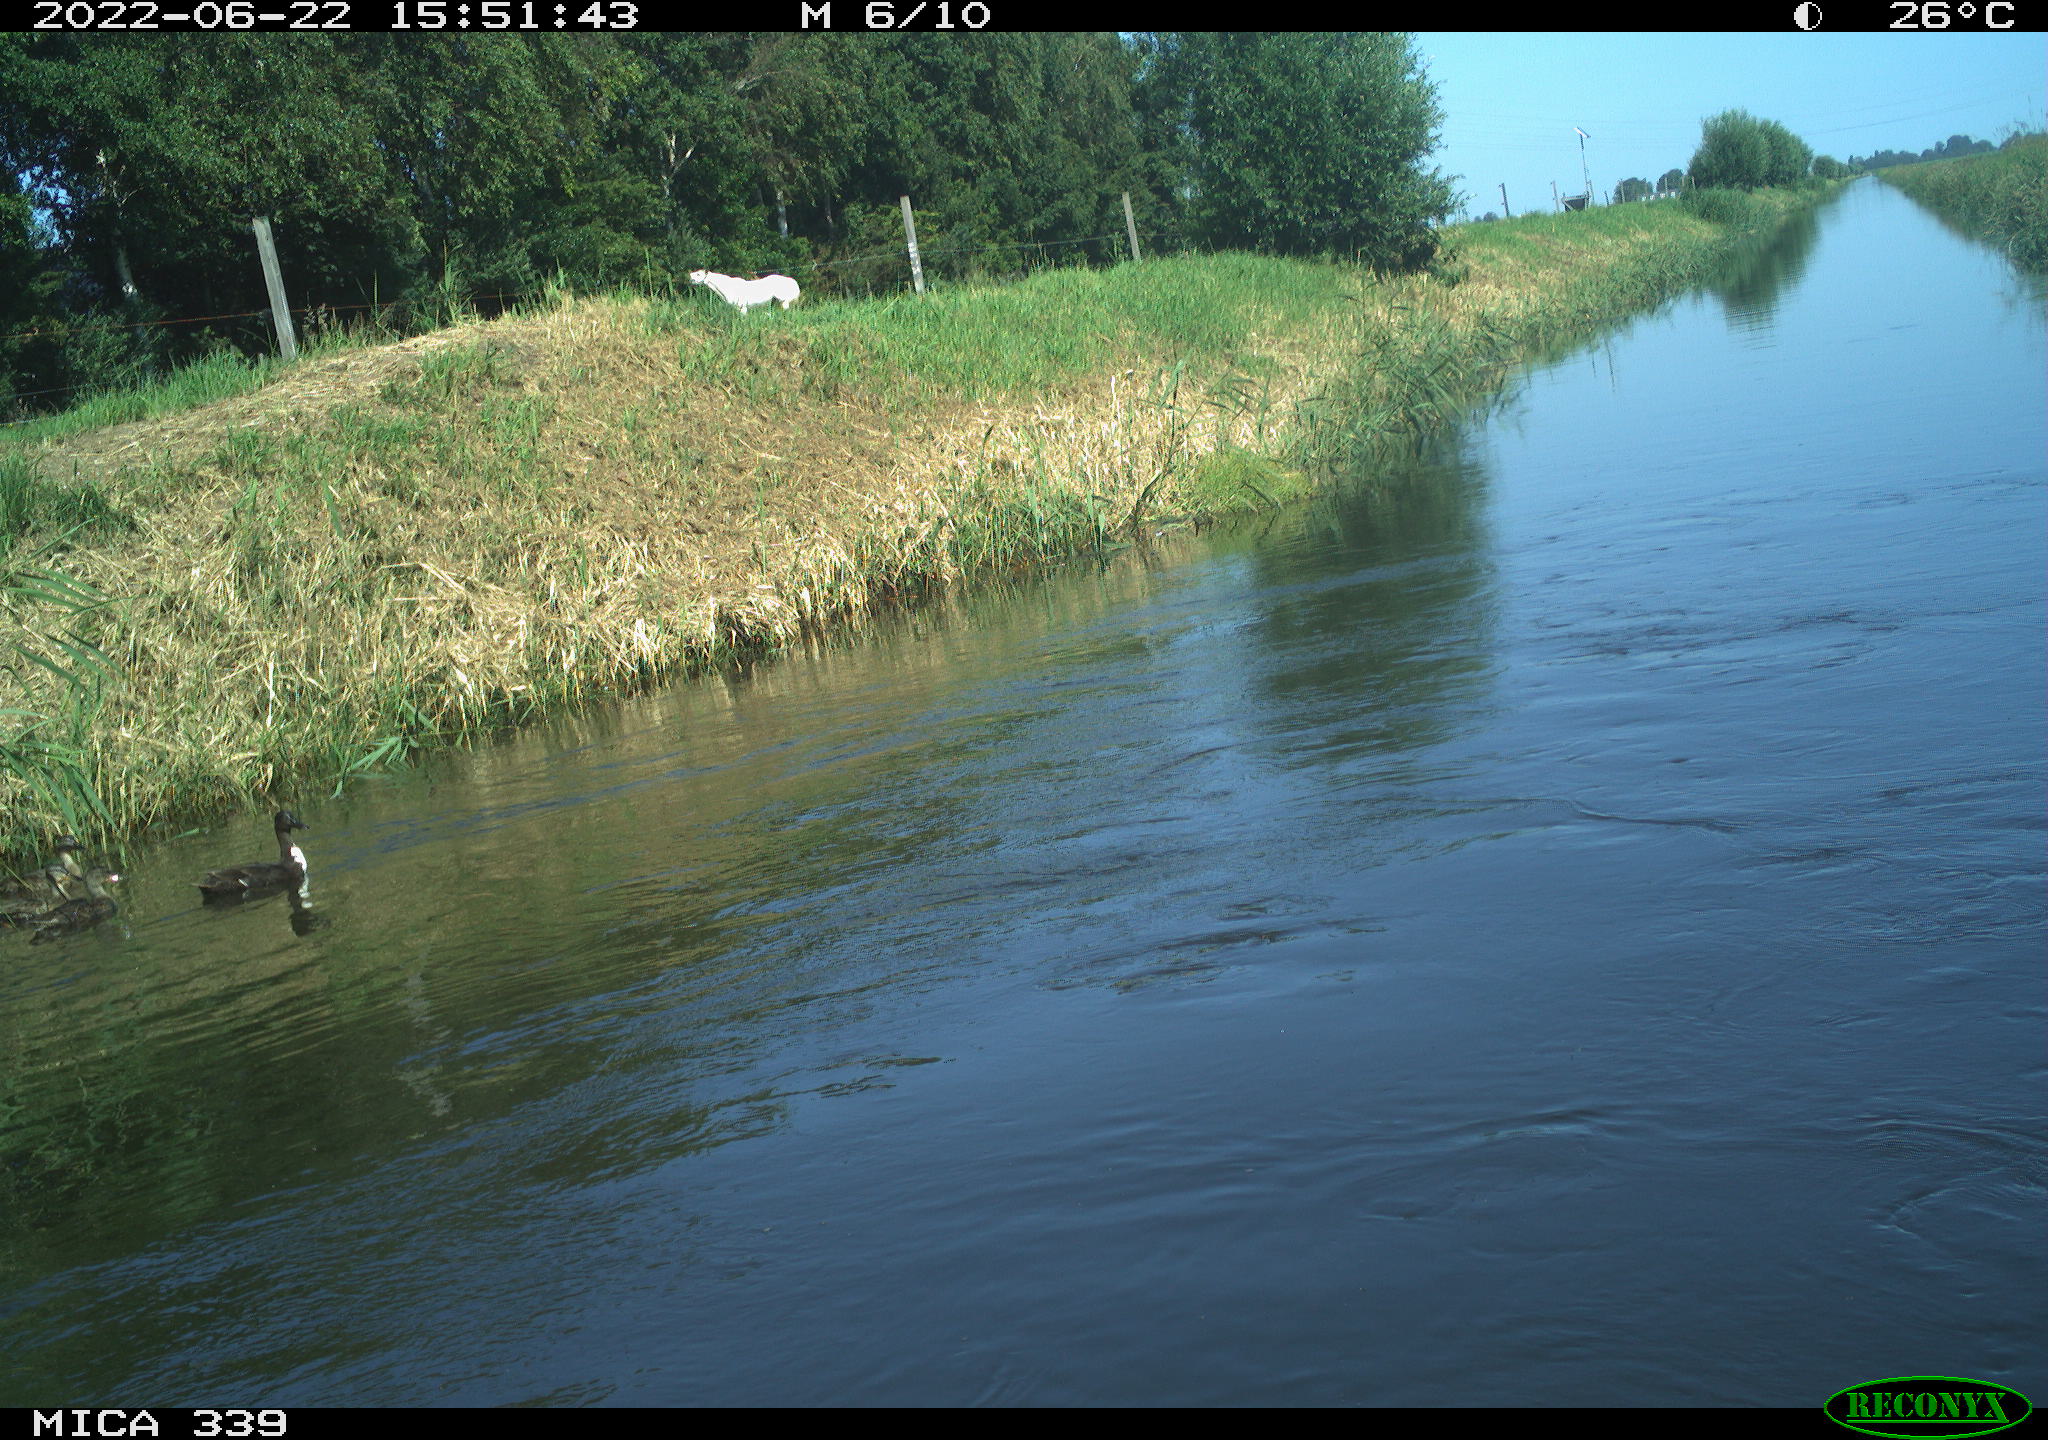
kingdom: Animalia
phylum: Chordata
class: Aves
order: Anseriformes
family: Anatidae
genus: Anas
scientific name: Anas platyrhynchos
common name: Mallard
